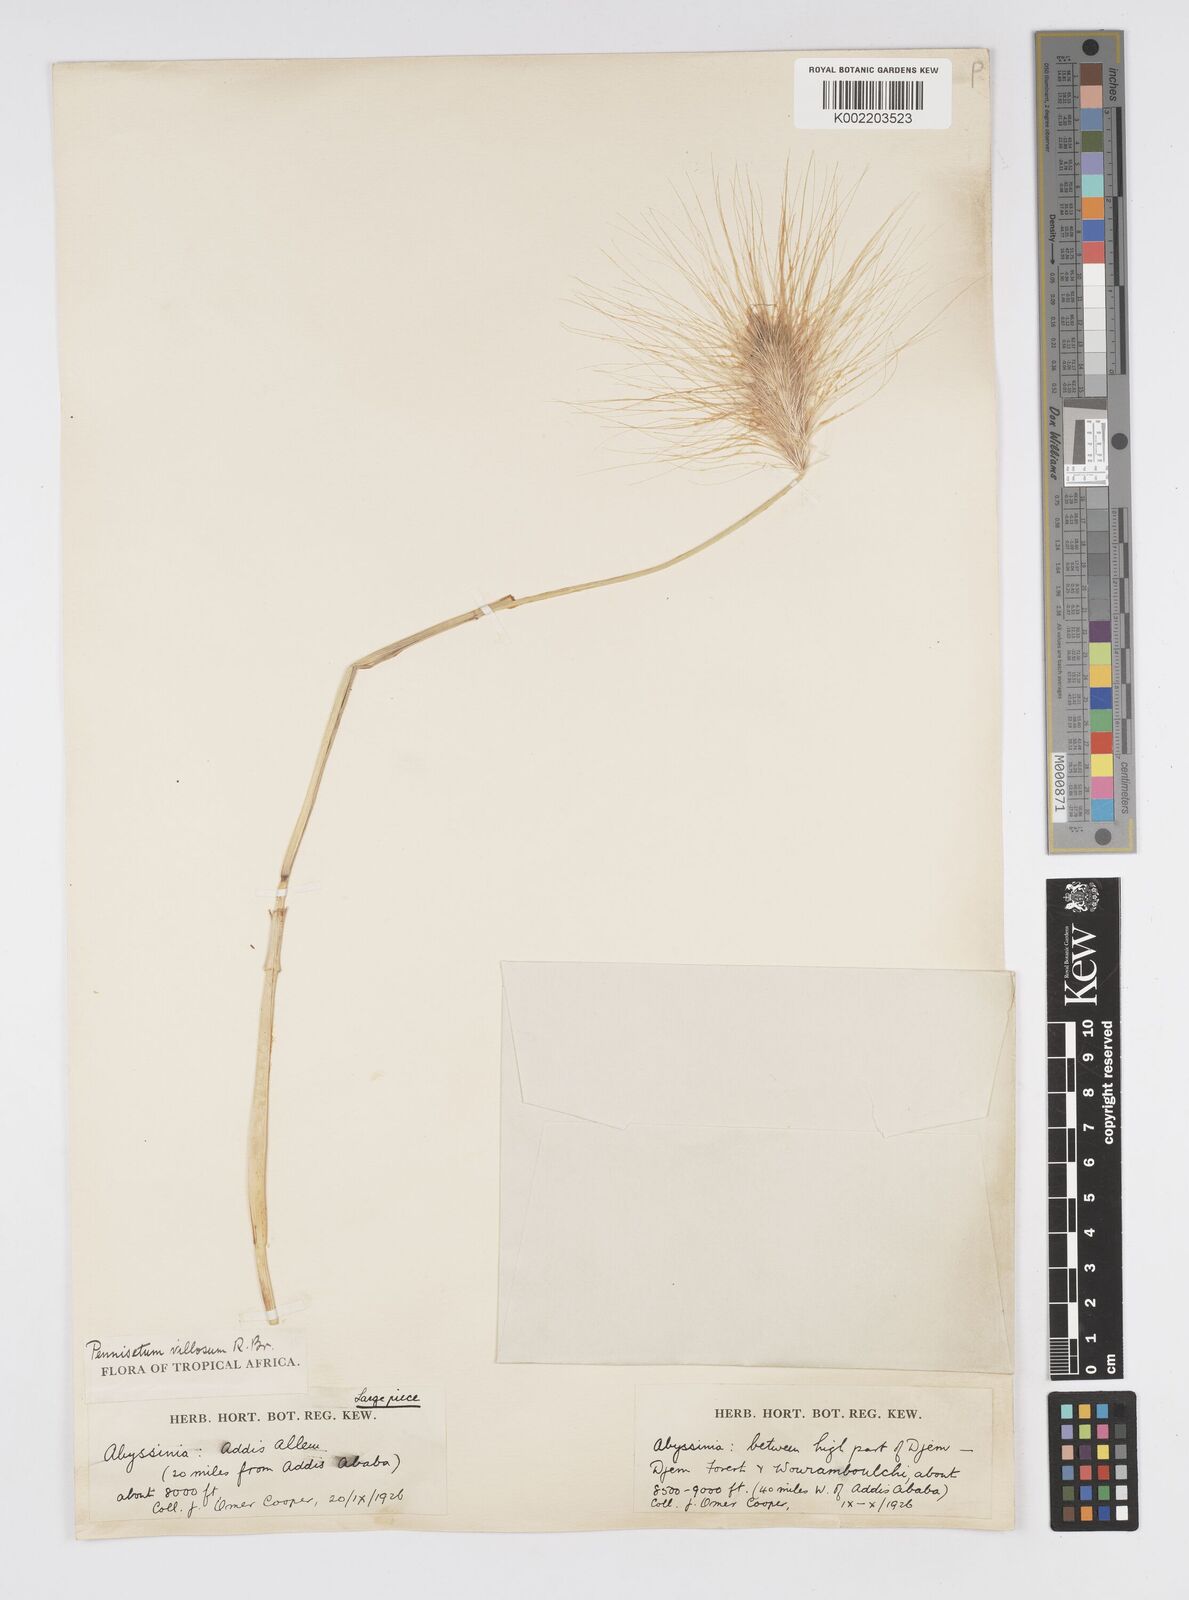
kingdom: Plantae
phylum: Tracheophyta
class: Liliopsida
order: Poales
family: Poaceae
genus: Cenchrus
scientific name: Cenchrus longisetus
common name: Feathertop
